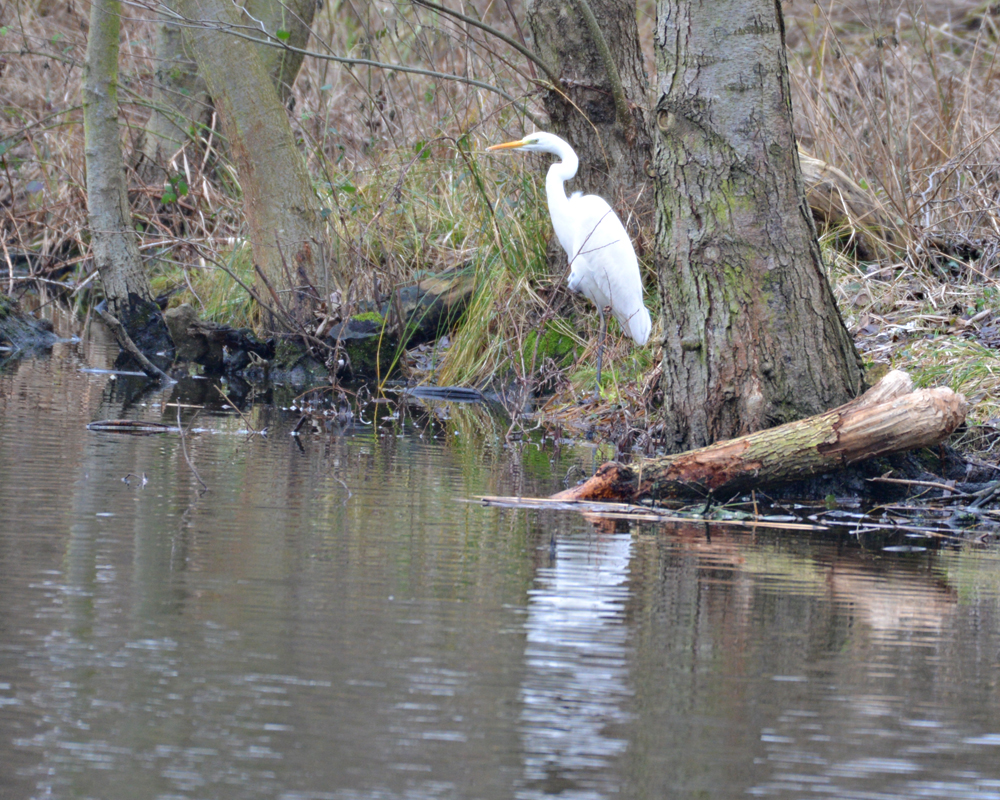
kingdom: Animalia
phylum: Chordata
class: Aves
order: Pelecaniformes
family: Ardeidae
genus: Ardea
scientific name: Ardea alba
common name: Great egret
